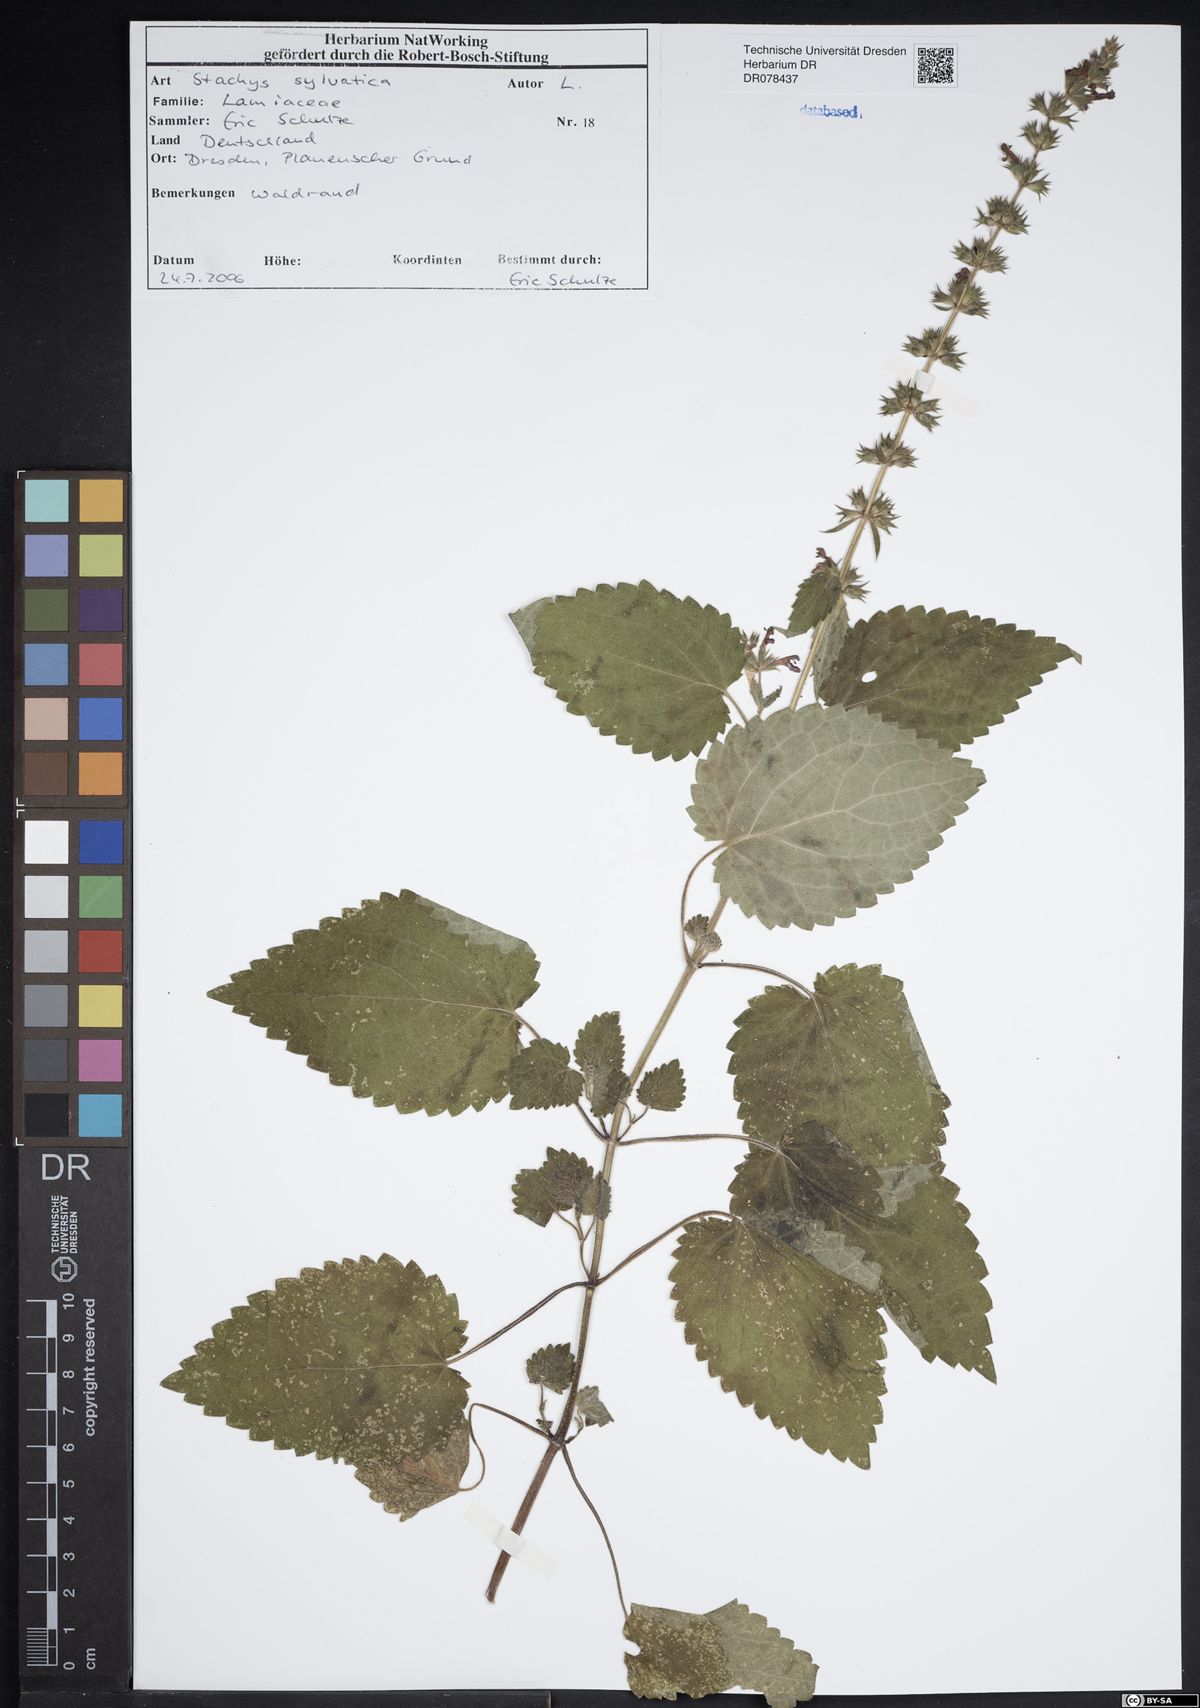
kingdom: Plantae
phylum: Tracheophyta
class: Magnoliopsida
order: Lamiales
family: Lamiaceae
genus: Stachys
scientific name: Stachys sylvatica
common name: Hedge woundwort
